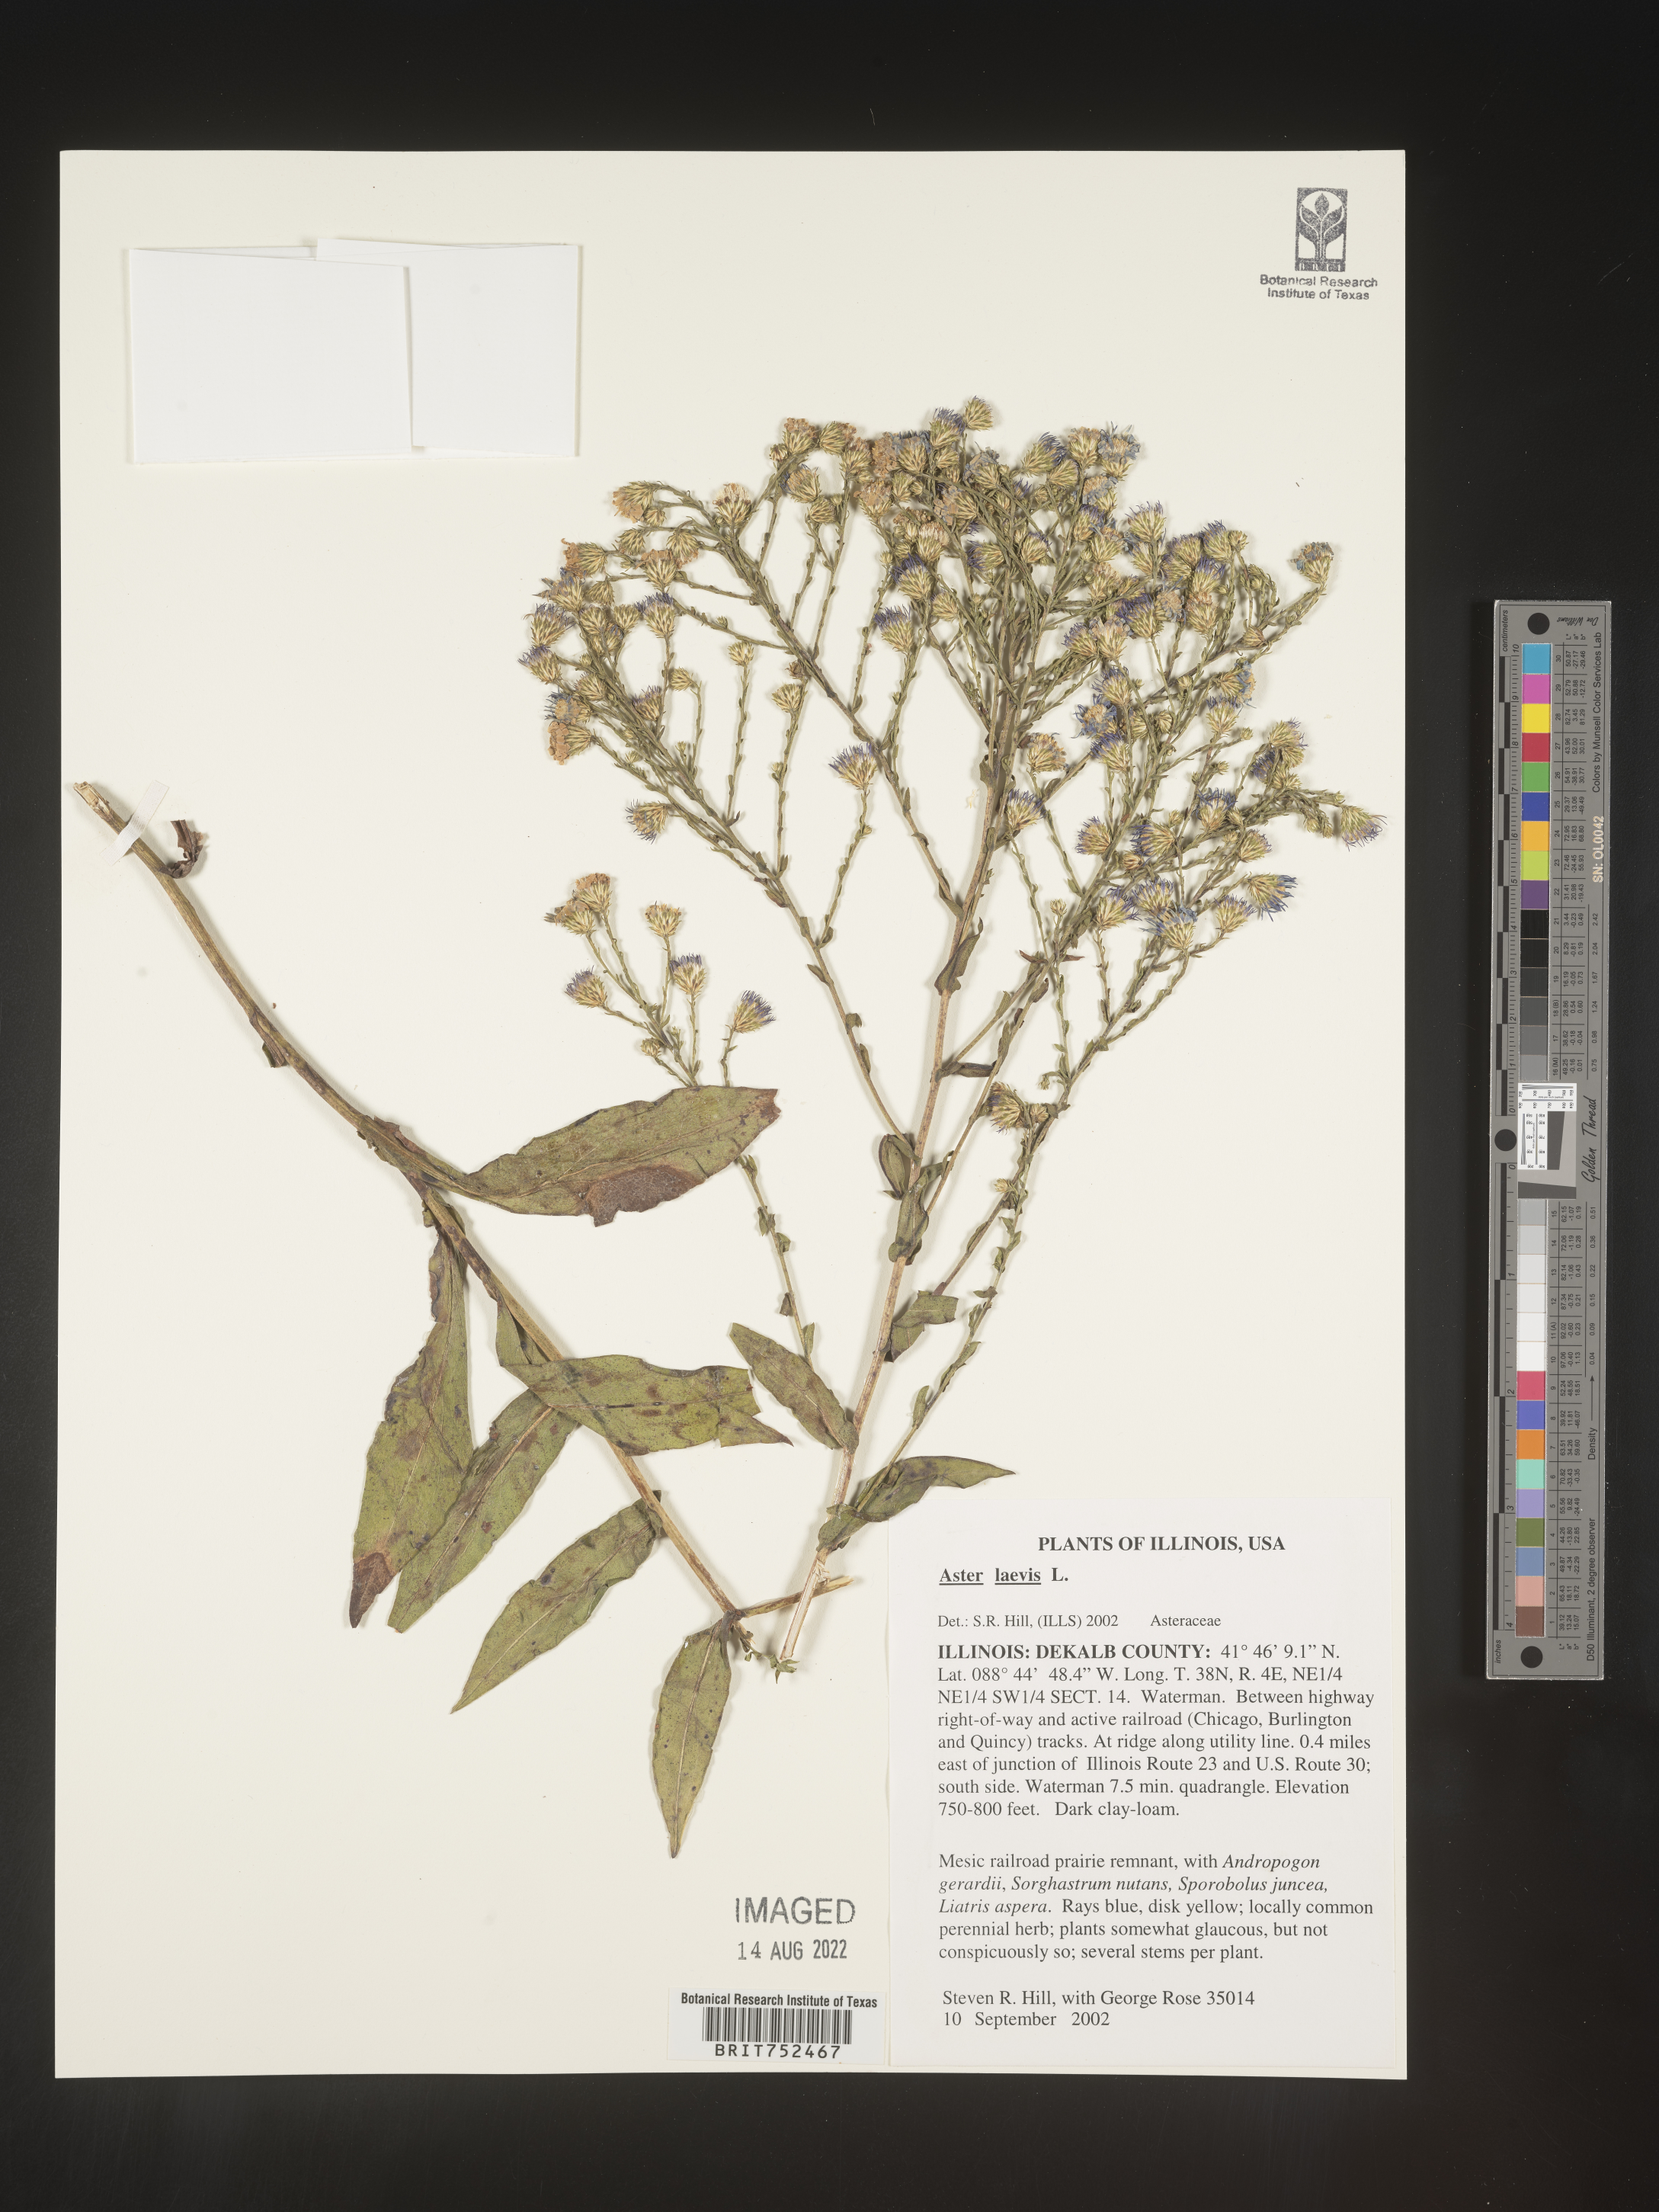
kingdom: Plantae
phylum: Tracheophyta
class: Magnoliopsida
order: Asterales
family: Asteraceae
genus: Symphyotrichum
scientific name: Symphyotrichum laeve
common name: Glaucous aster
